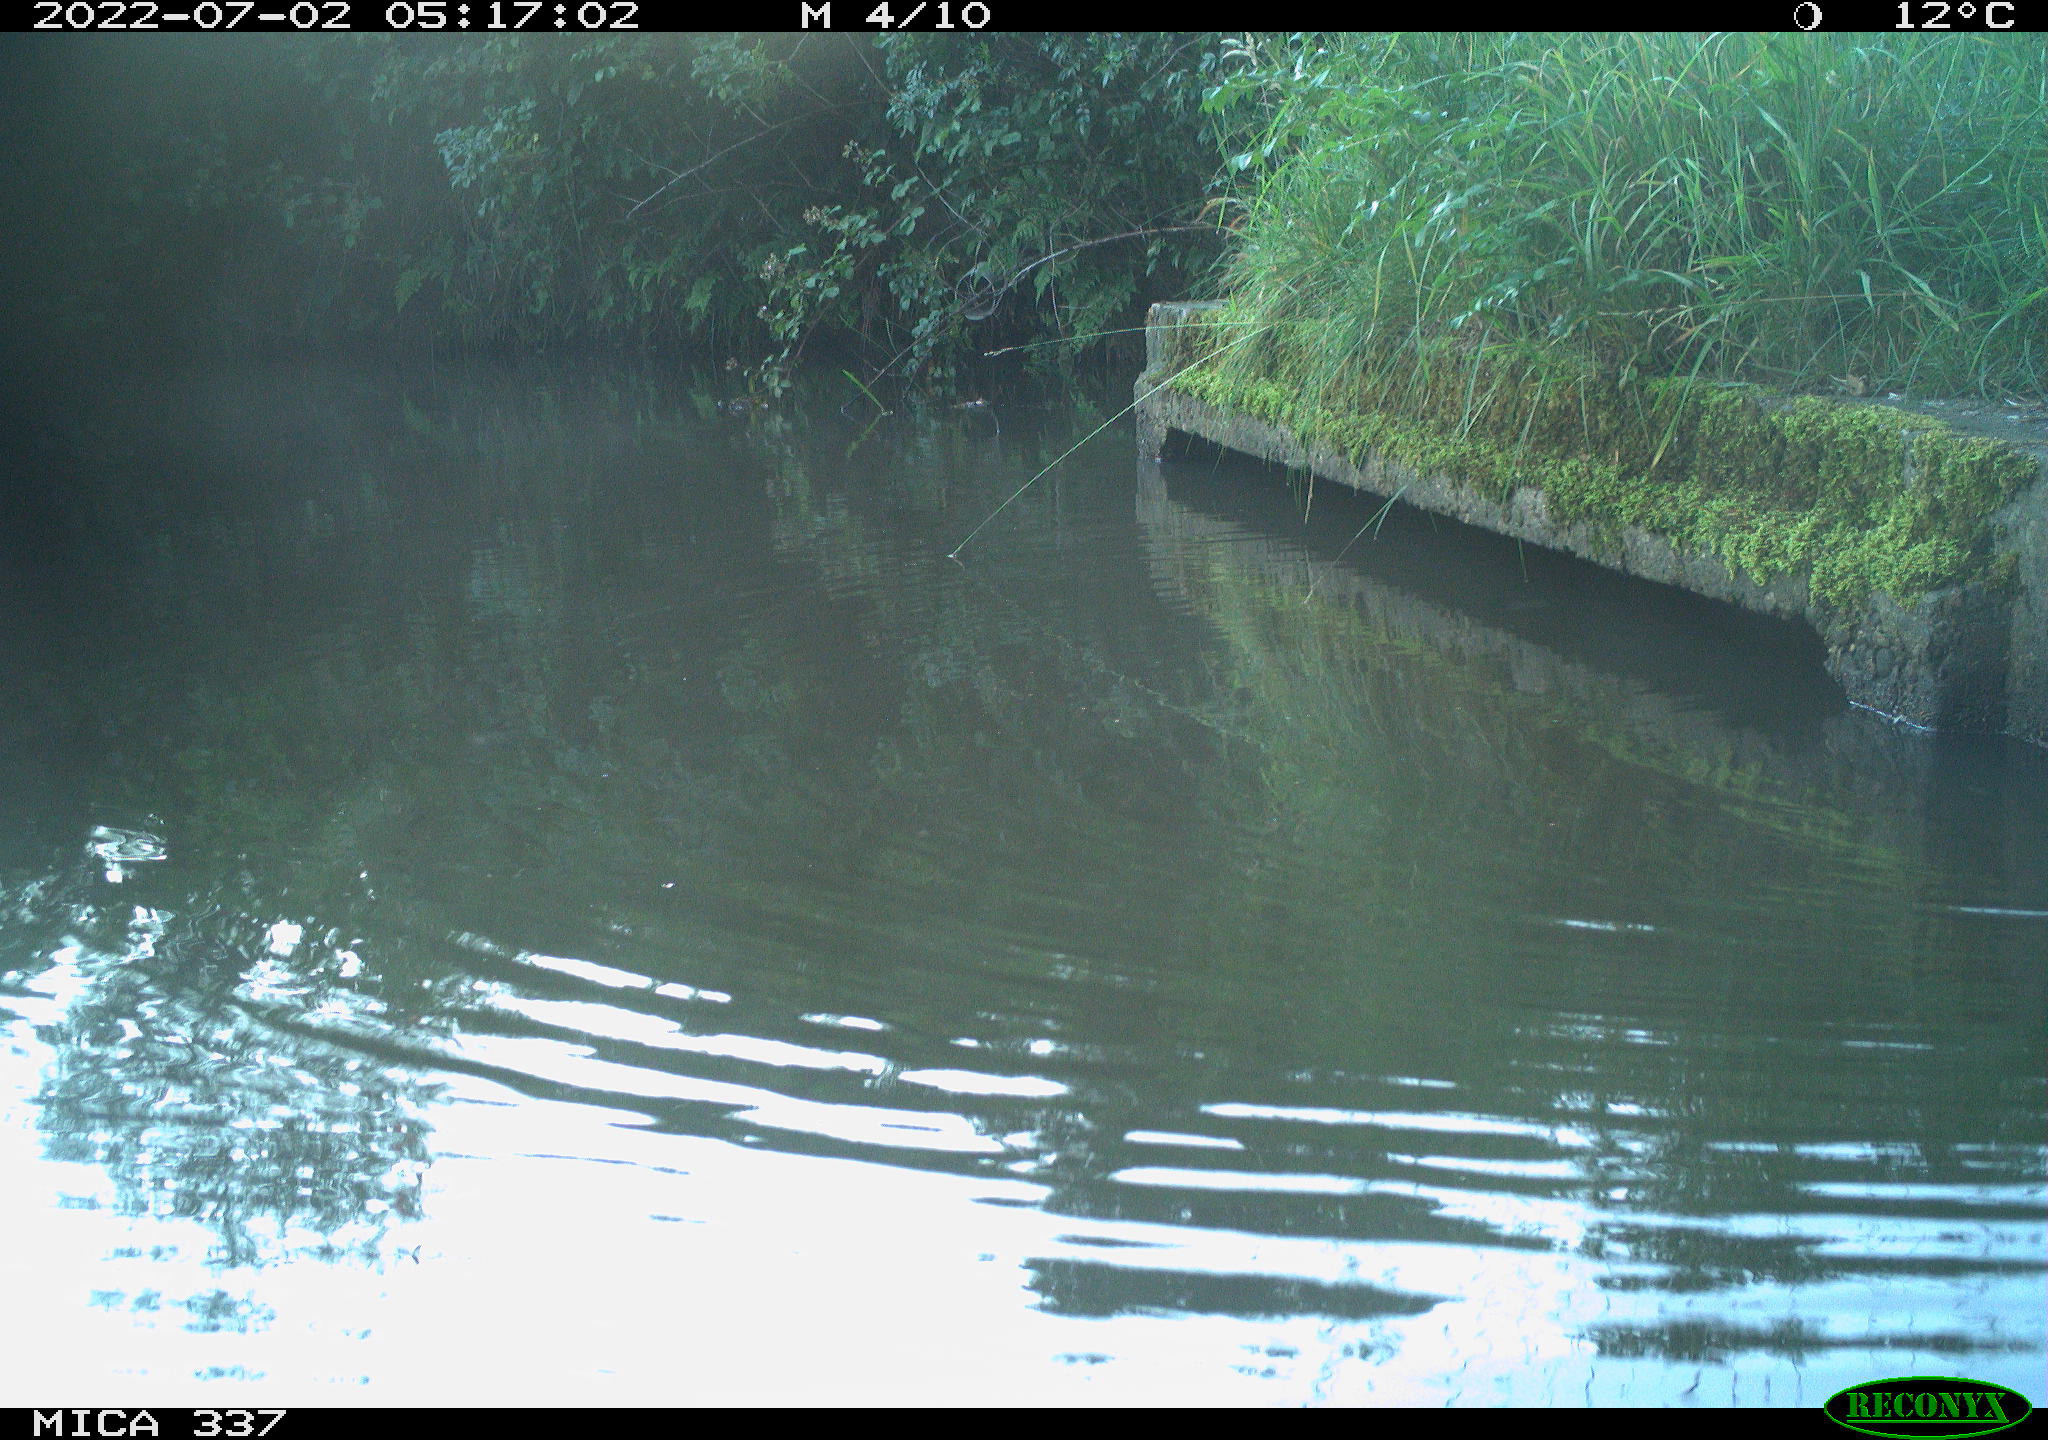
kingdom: Animalia
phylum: Chordata
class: Aves
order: Gruiformes
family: Rallidae
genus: Gallinula
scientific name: Gallinula chloropus
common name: Common moorhen
